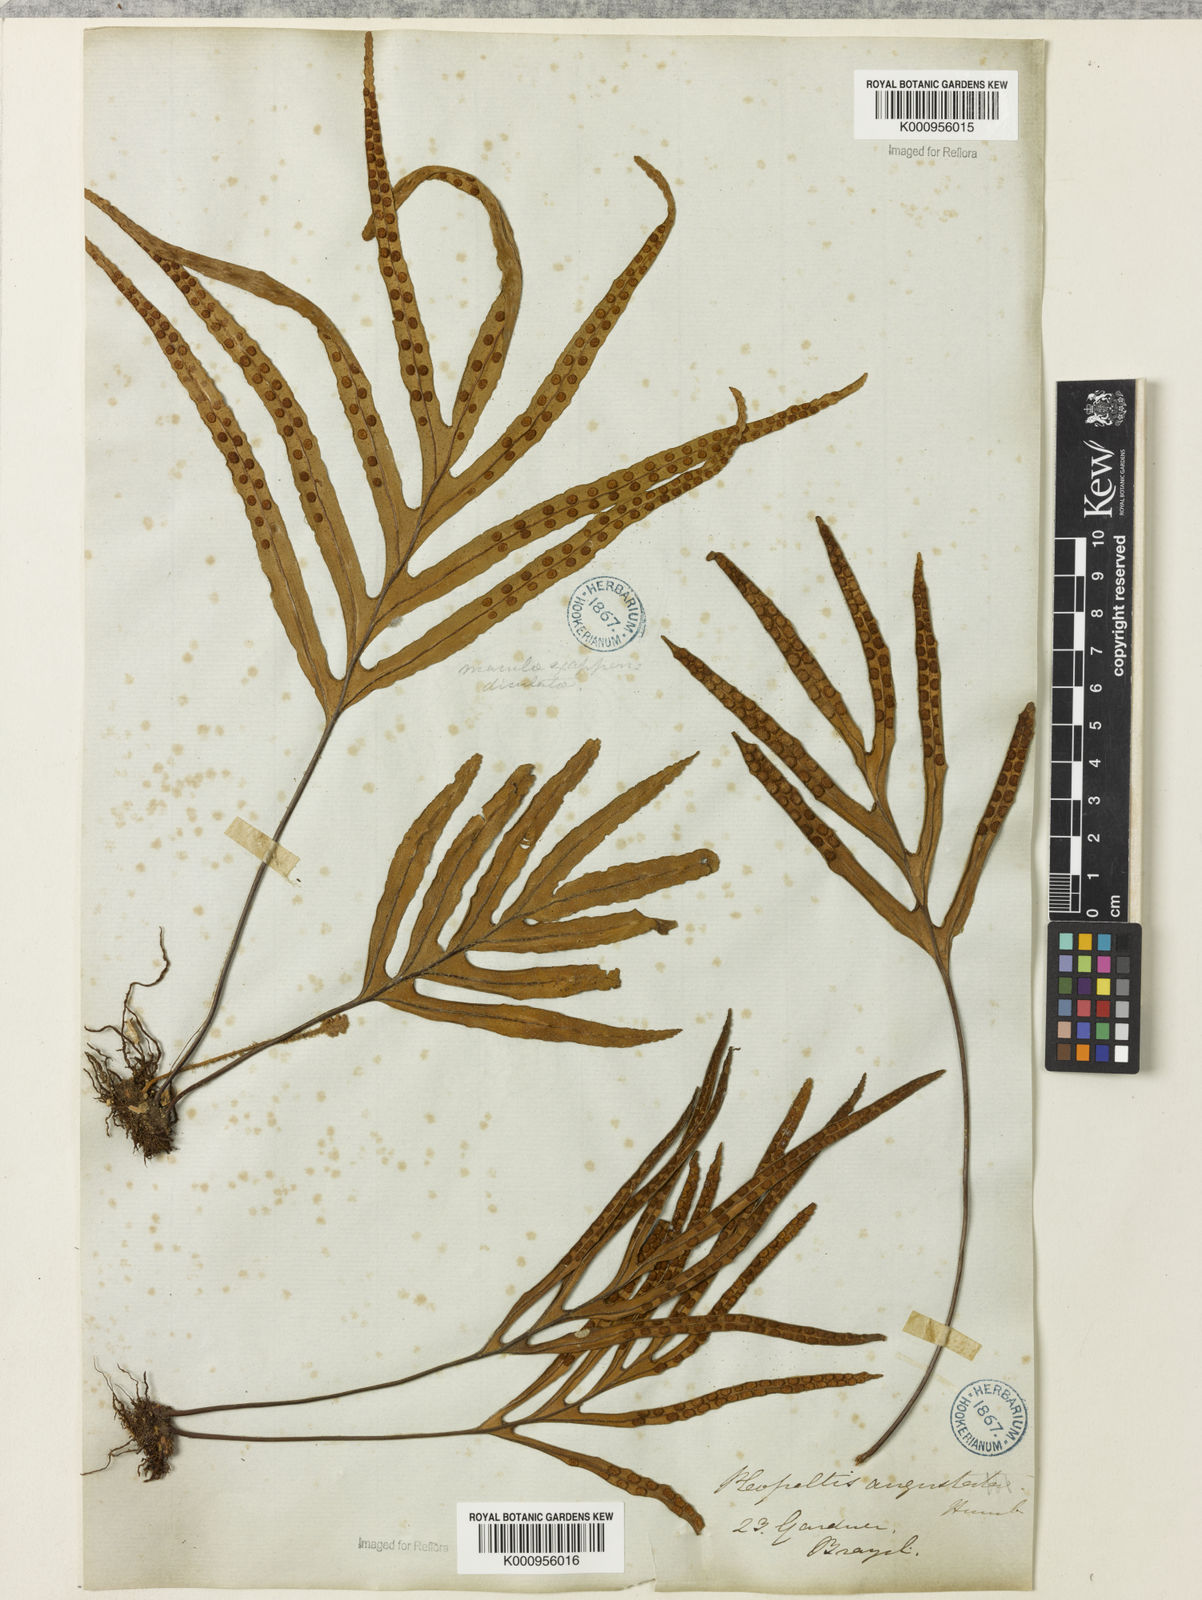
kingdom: Plantae
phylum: Tracheophyta
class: Polypodiopsida
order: Polypodiales
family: Polypodiaceae
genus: Pleopeltis
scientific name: Pleopeltis angusta
